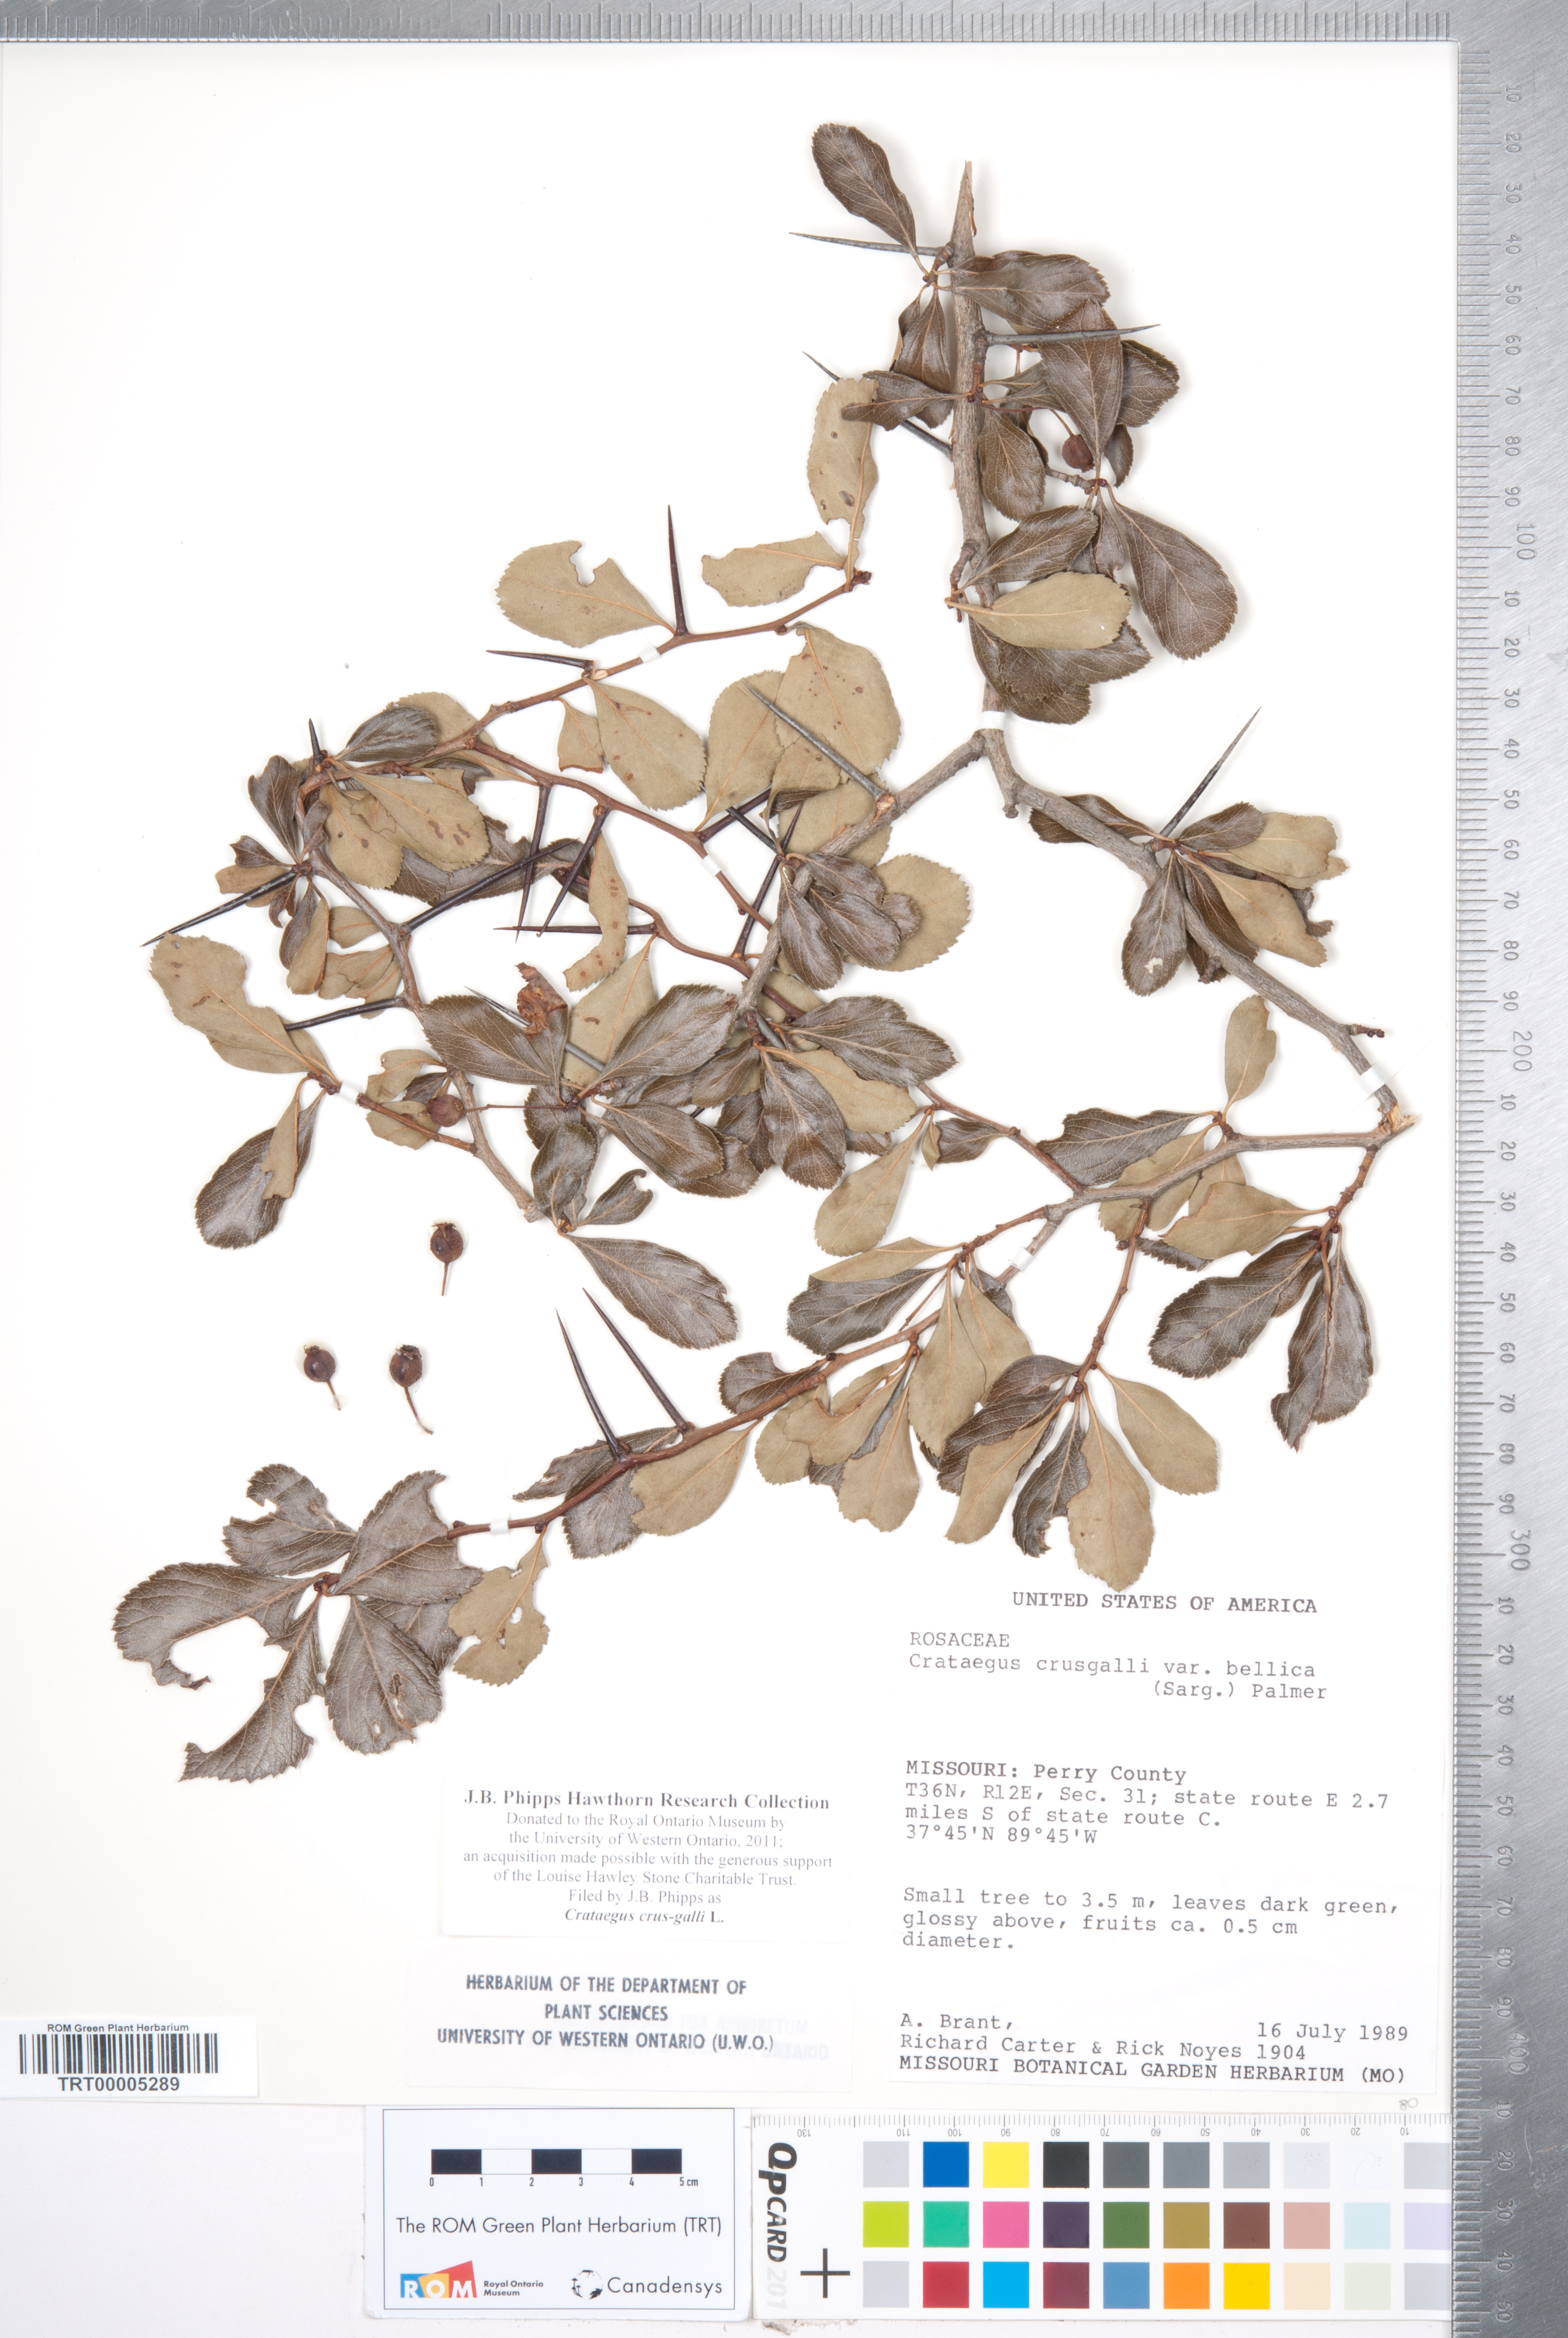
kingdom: Plantae
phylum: Tracheophyta
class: Magnoliopsida
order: Rosales
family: Rosaceae
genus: Crataegus
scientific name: Crataegus crus-galli
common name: Cockspurthorn
